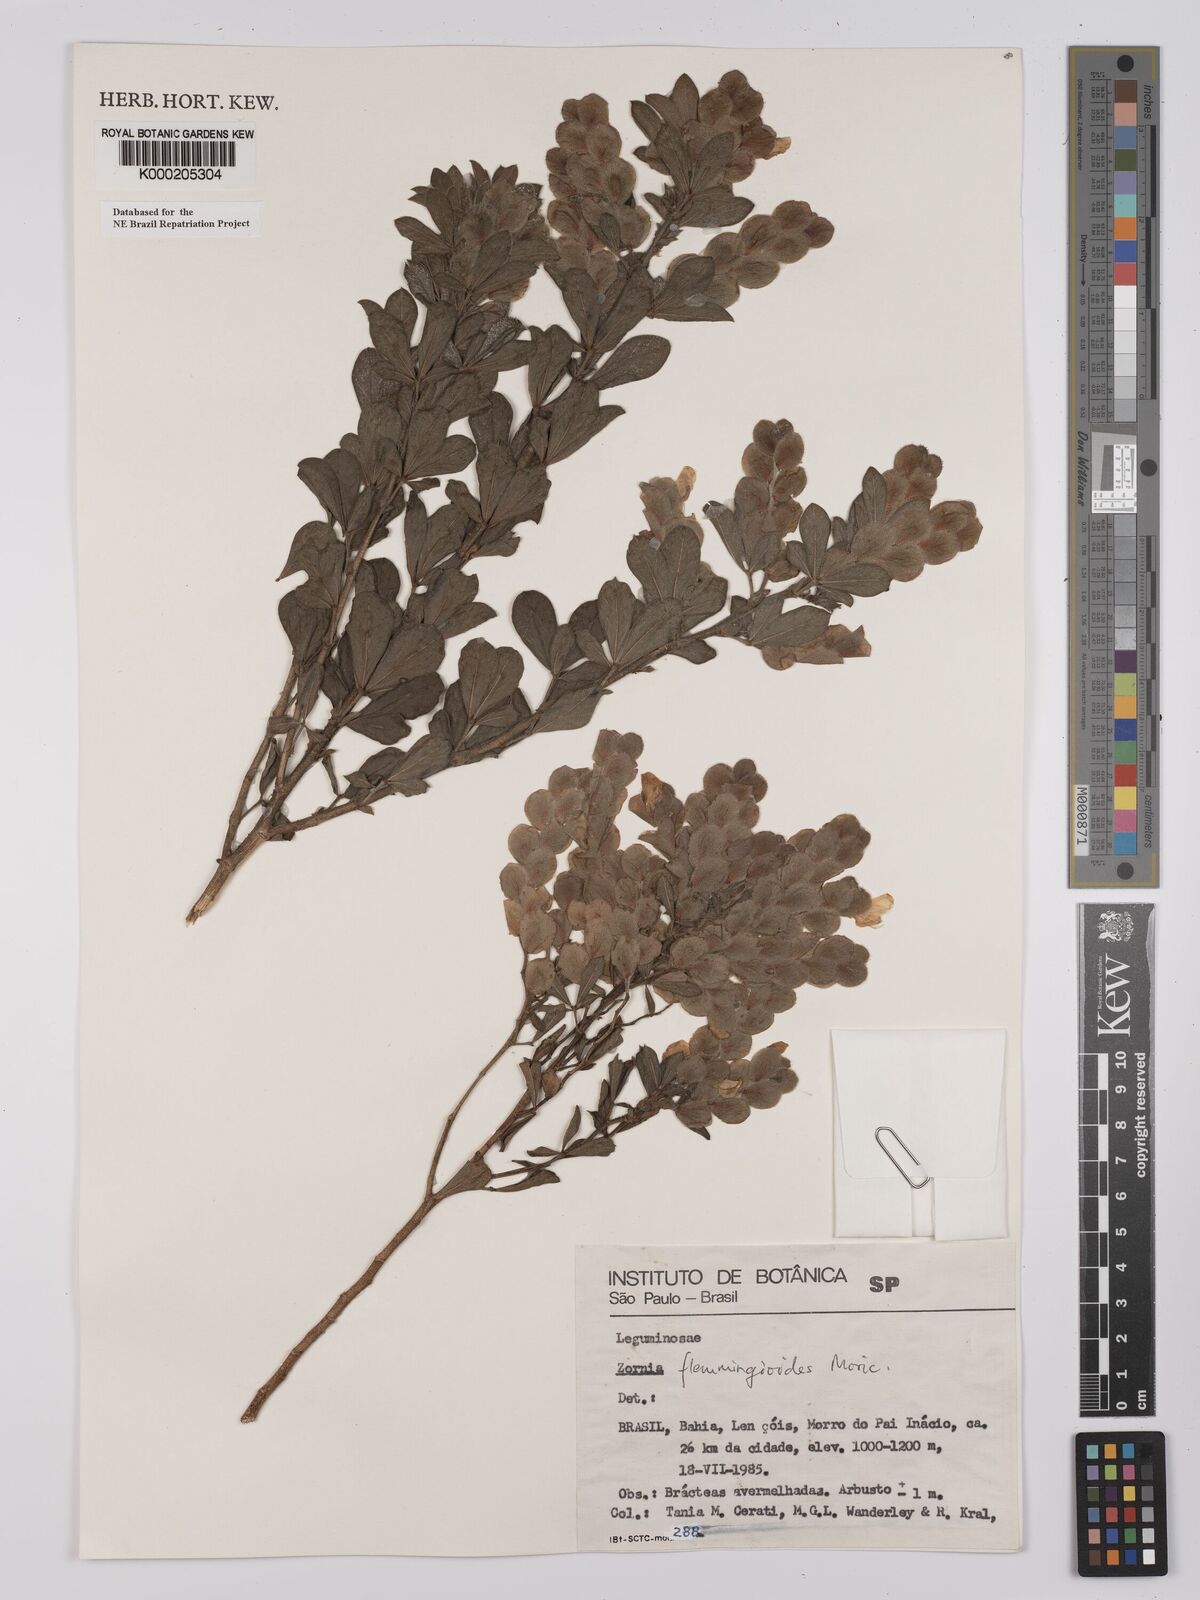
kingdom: Plantae
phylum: Tracheophyta
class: Magnoliopsida
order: Fabales
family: Fabaceae
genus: Zornia
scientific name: Zornia flemmingioides
